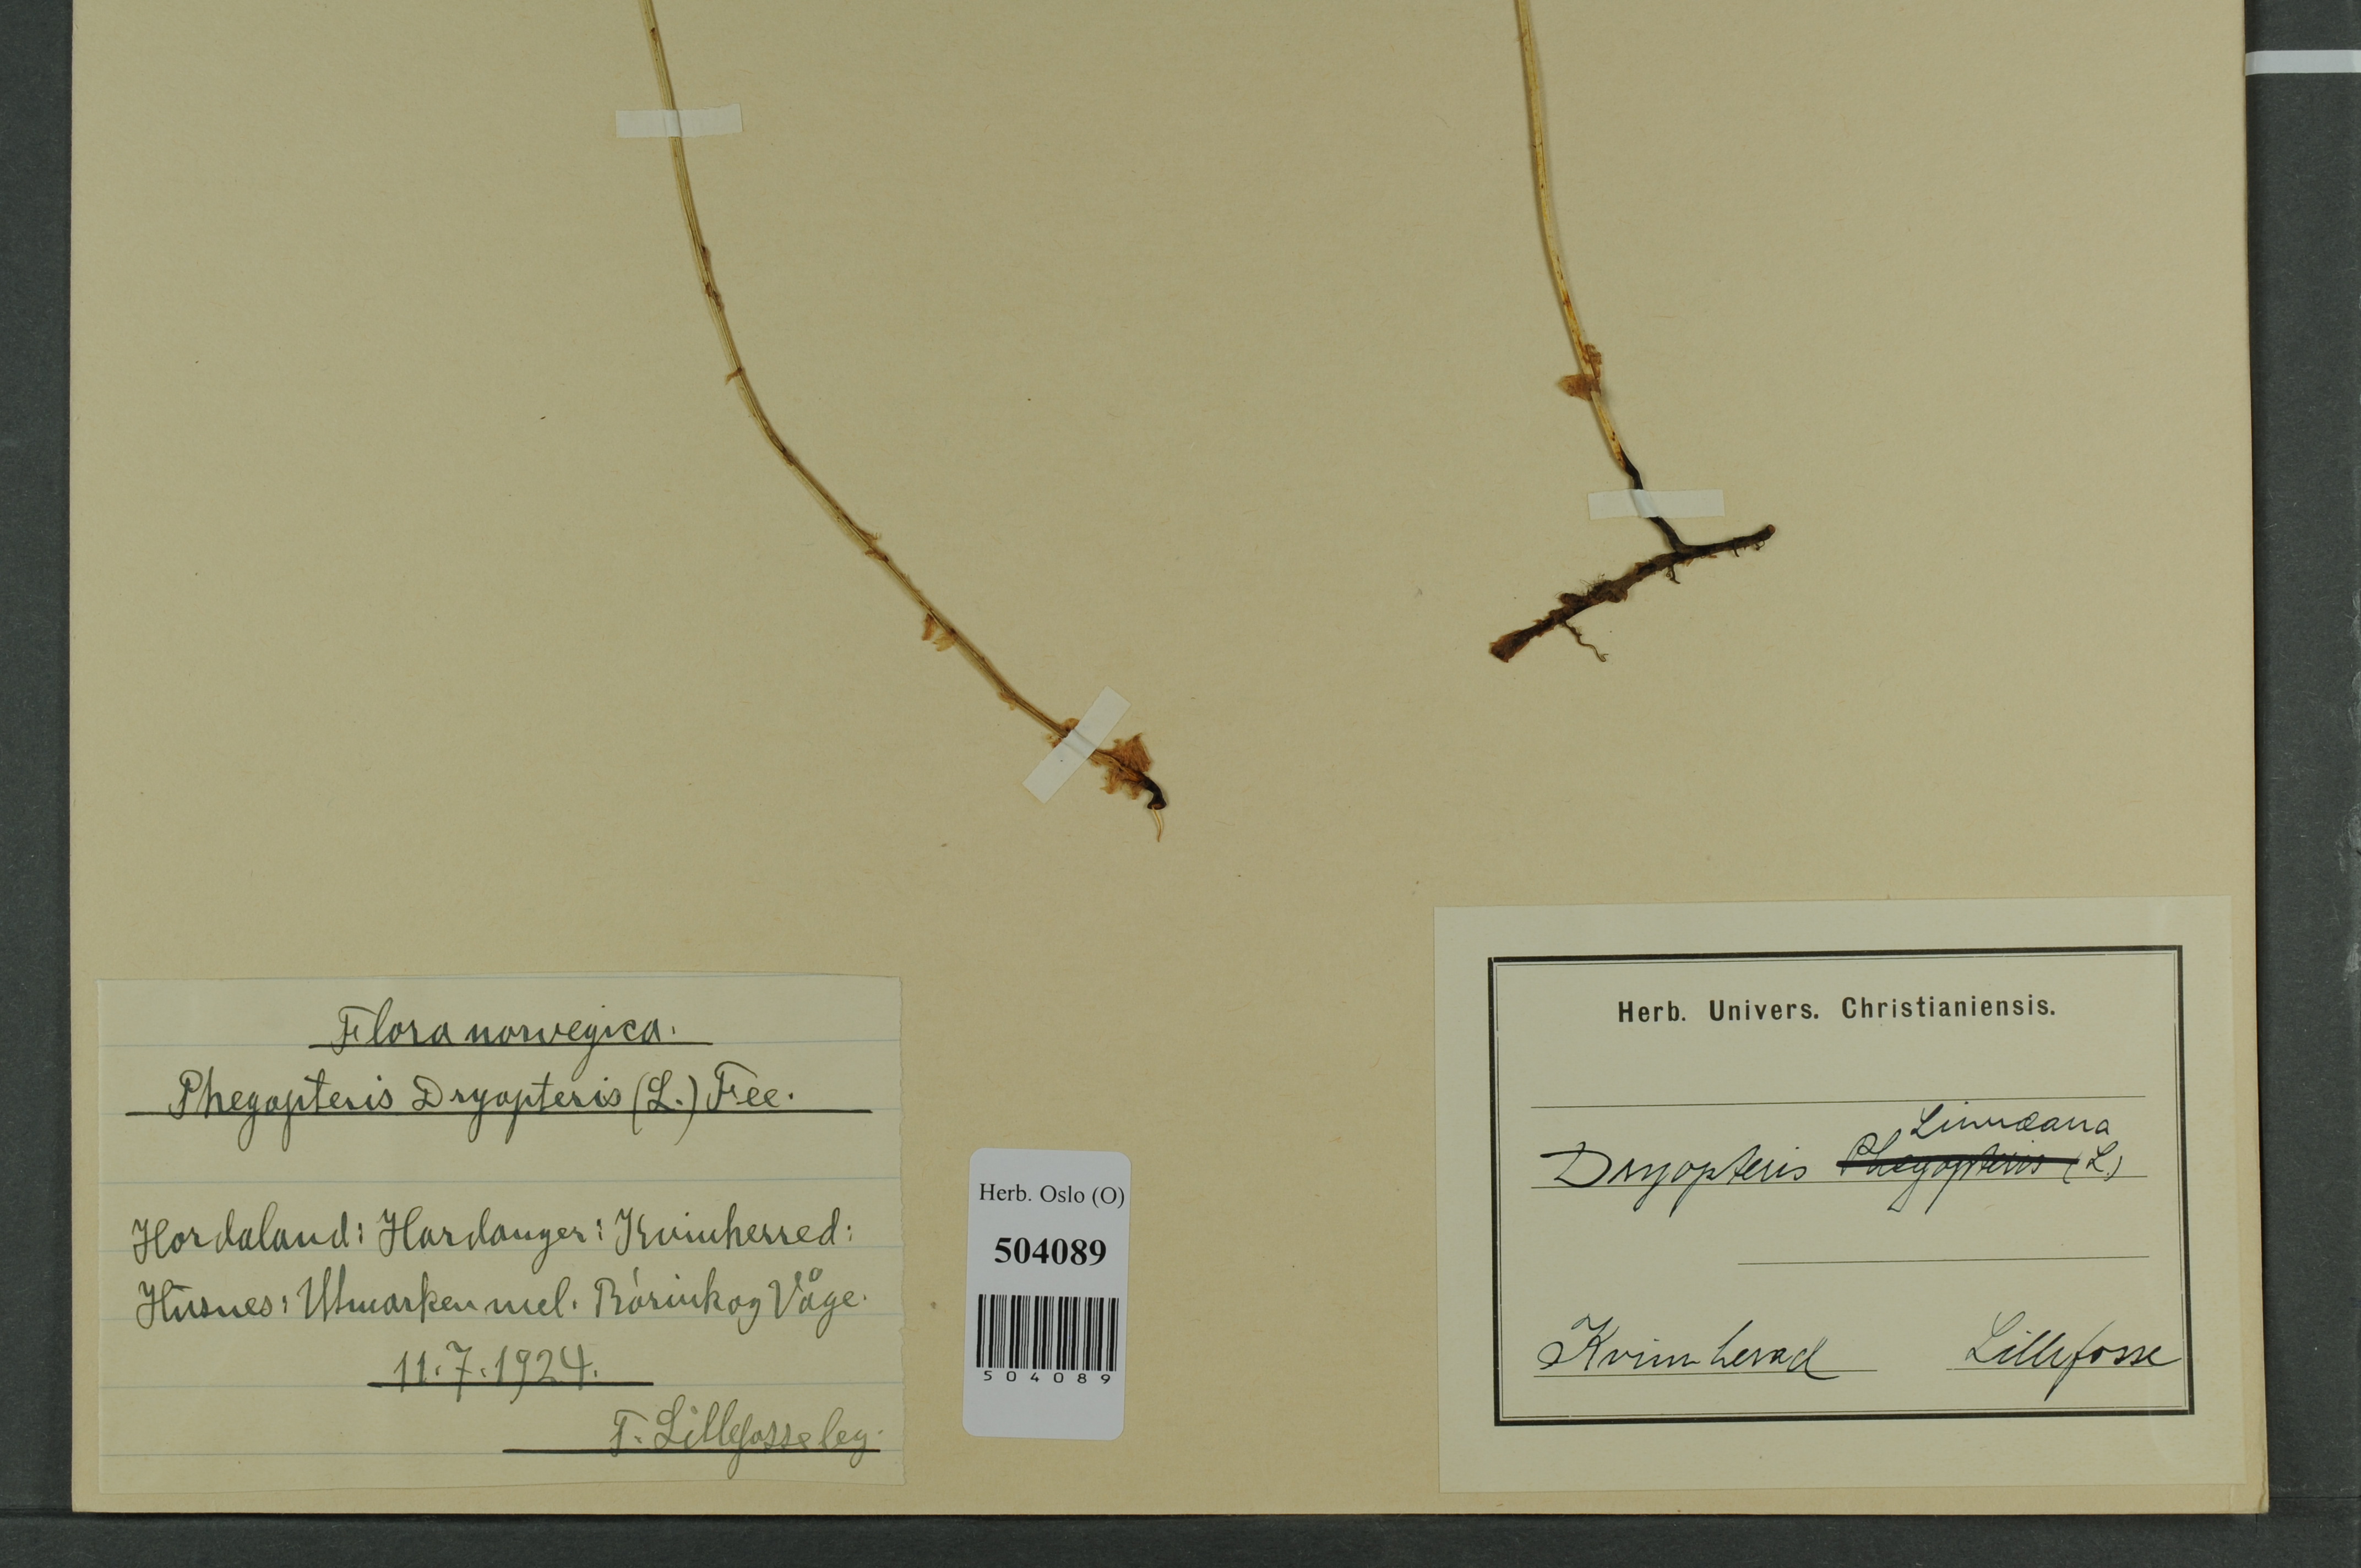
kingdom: Plantae
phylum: Tracheophyta
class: Polypodiopsida
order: Polypodiales
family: Cystopteridaceae
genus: Gymnocarpium
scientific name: Gymnocarpium dryopteris
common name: Oak fern
